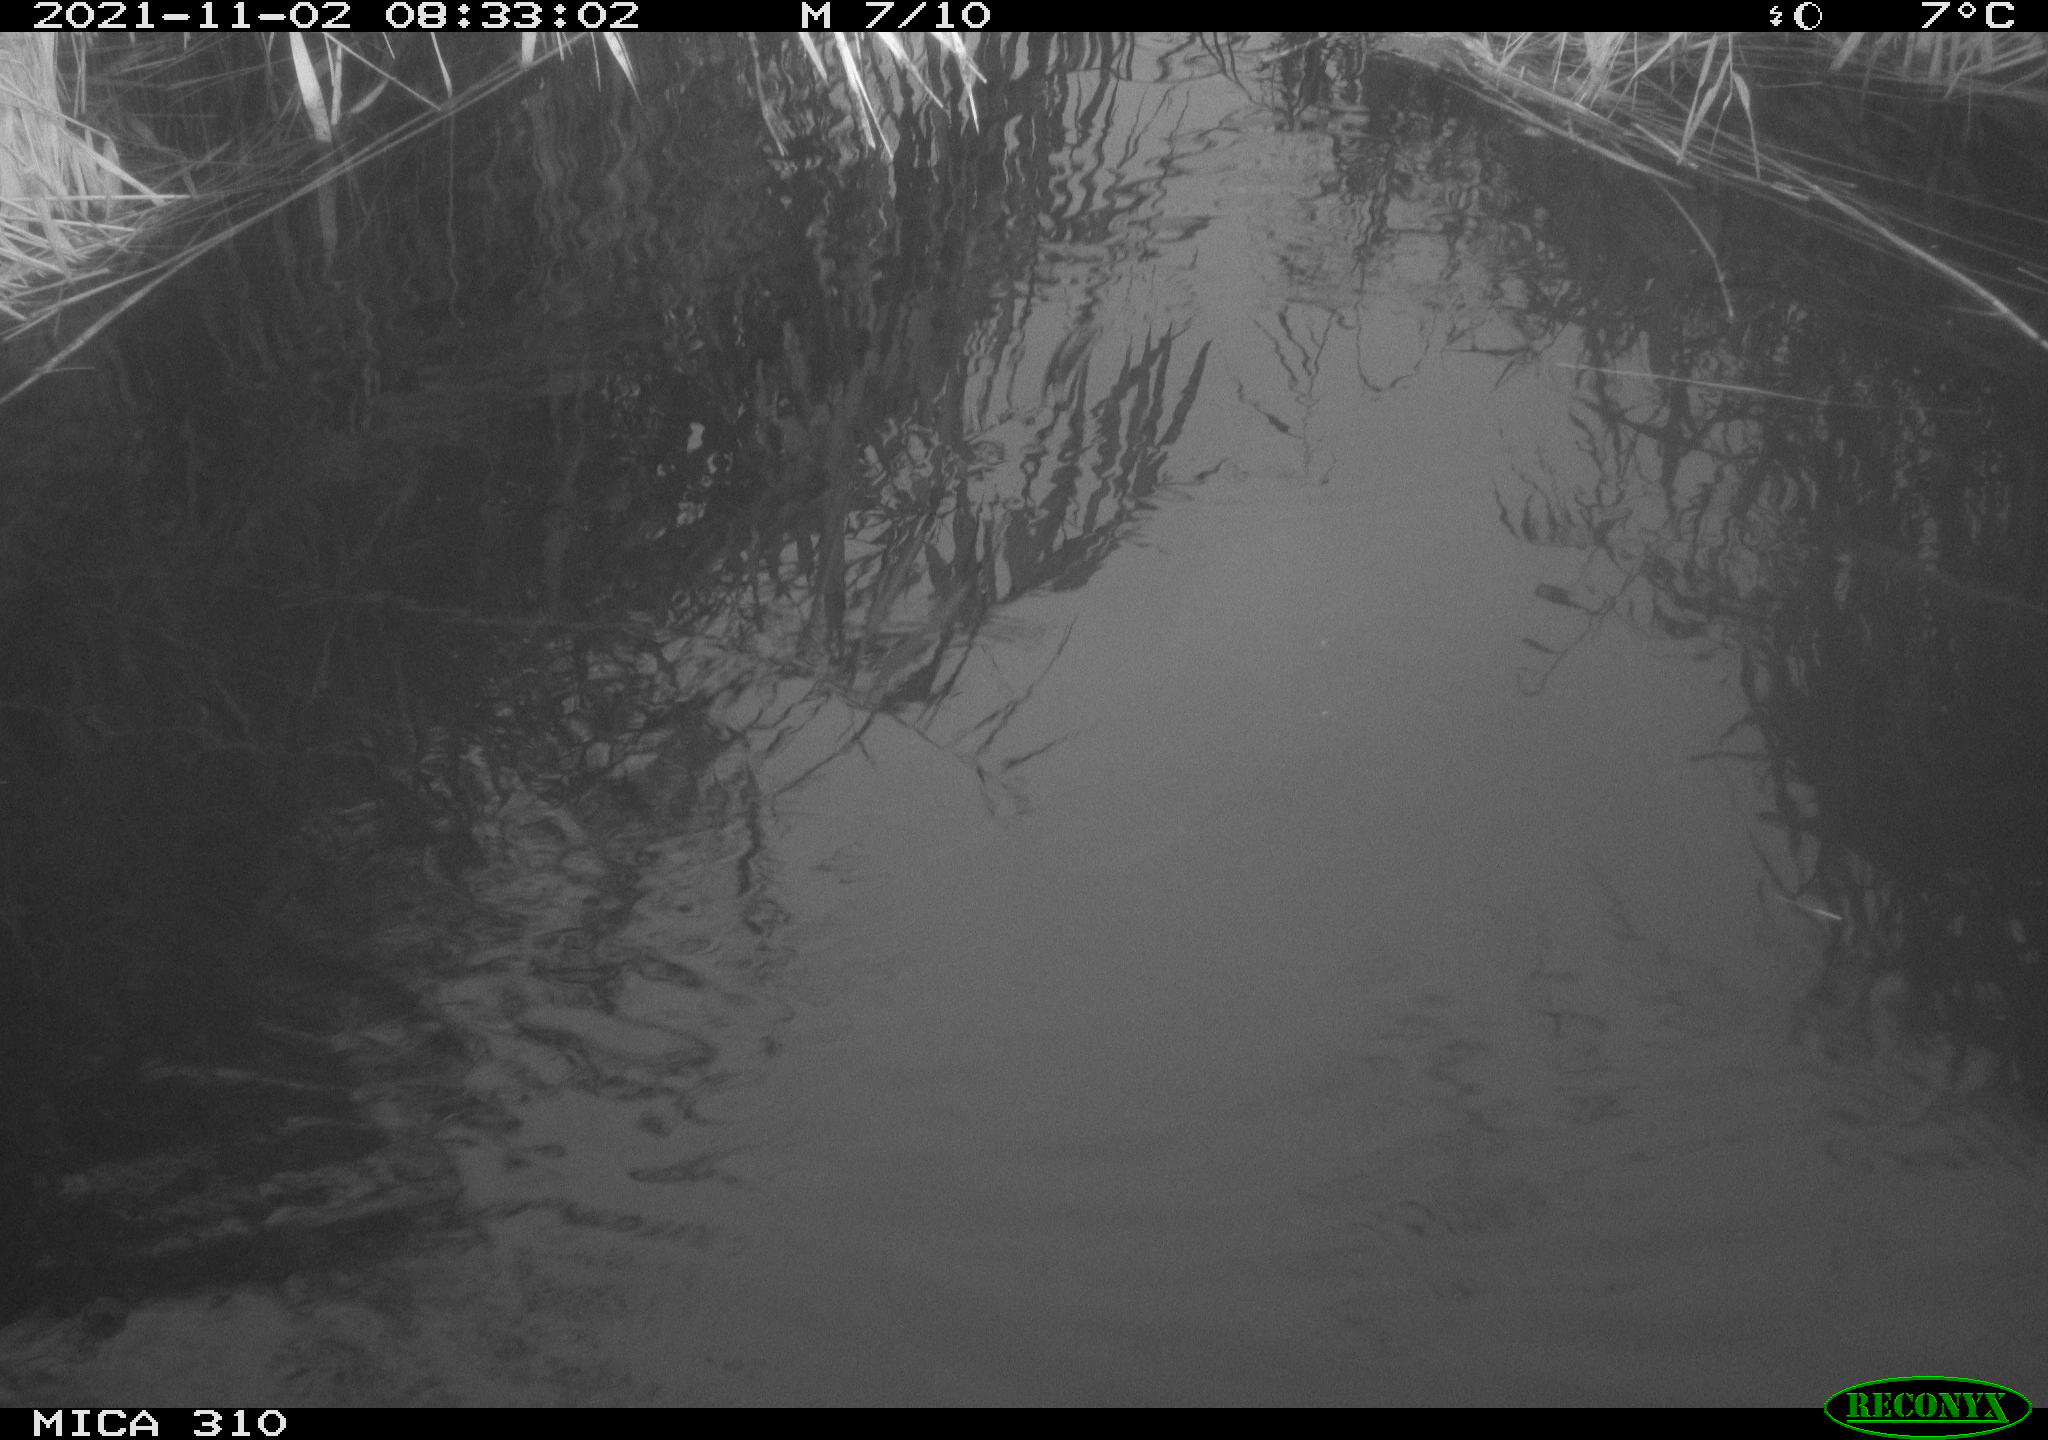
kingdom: Animalia
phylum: Chordata
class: Aves
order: Gruiformes
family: Rallidae
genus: Gallinula
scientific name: Gallinula chloropus
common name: Common moorhen
